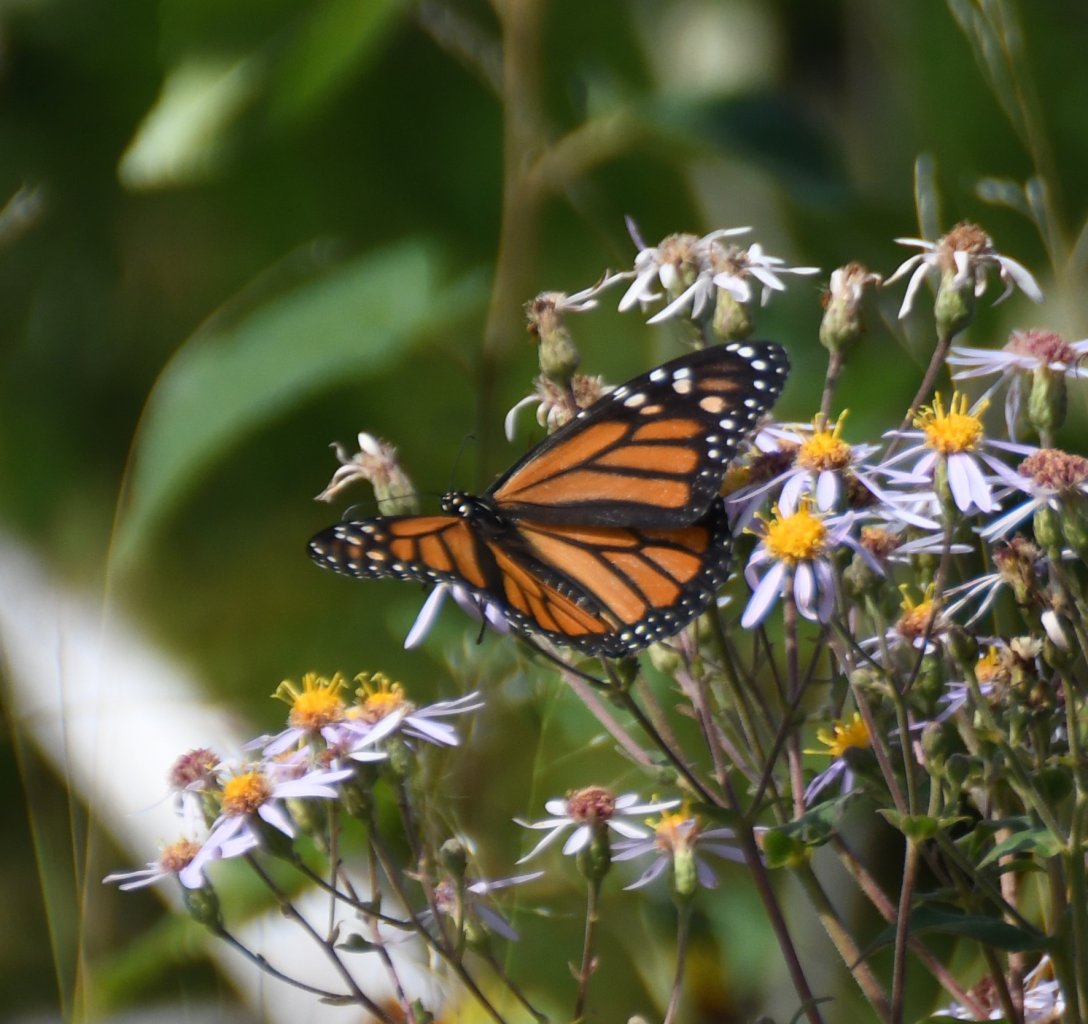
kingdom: Animalia
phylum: Arthropoda
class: Insecta
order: Lepidoptera
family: Nymphalidae
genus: Danaus
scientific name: Danaus plexippus
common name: Monarch
